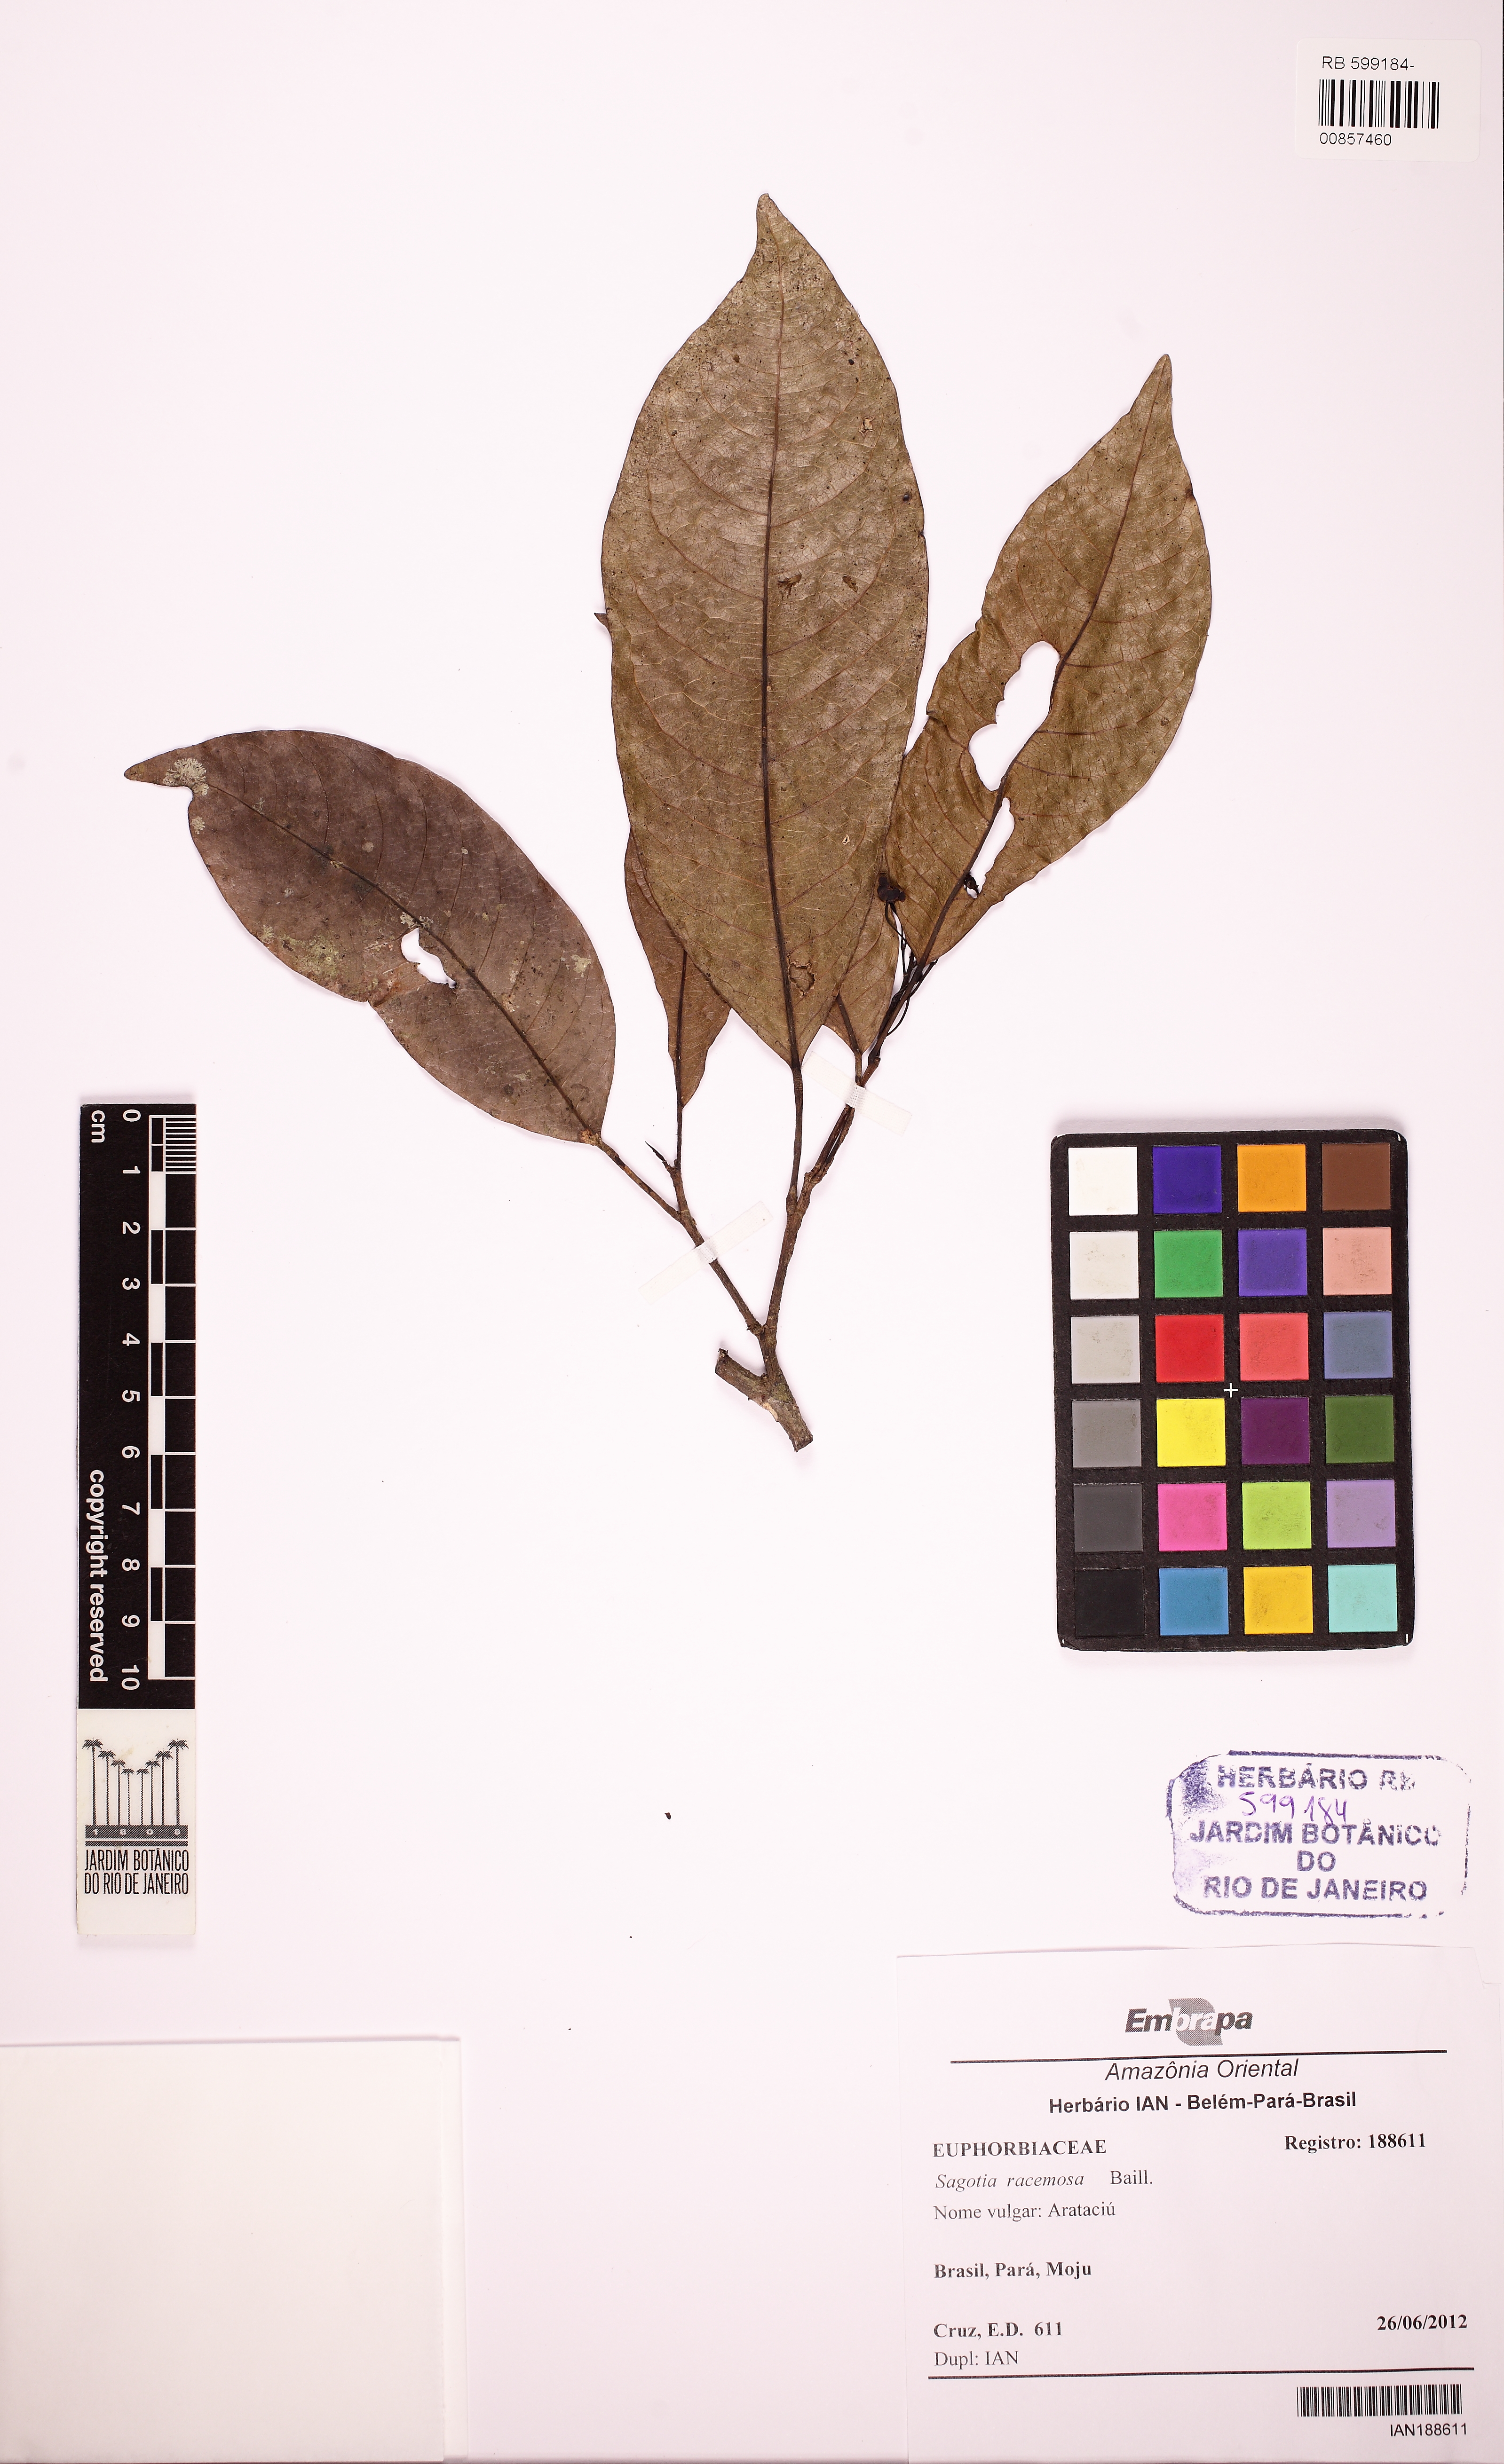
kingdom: Plantae
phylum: Tracheophyta
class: Magnoliopsida
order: Malpighiales
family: Euphorbiaceae
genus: Sagotia
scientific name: Sagotia racemosa
